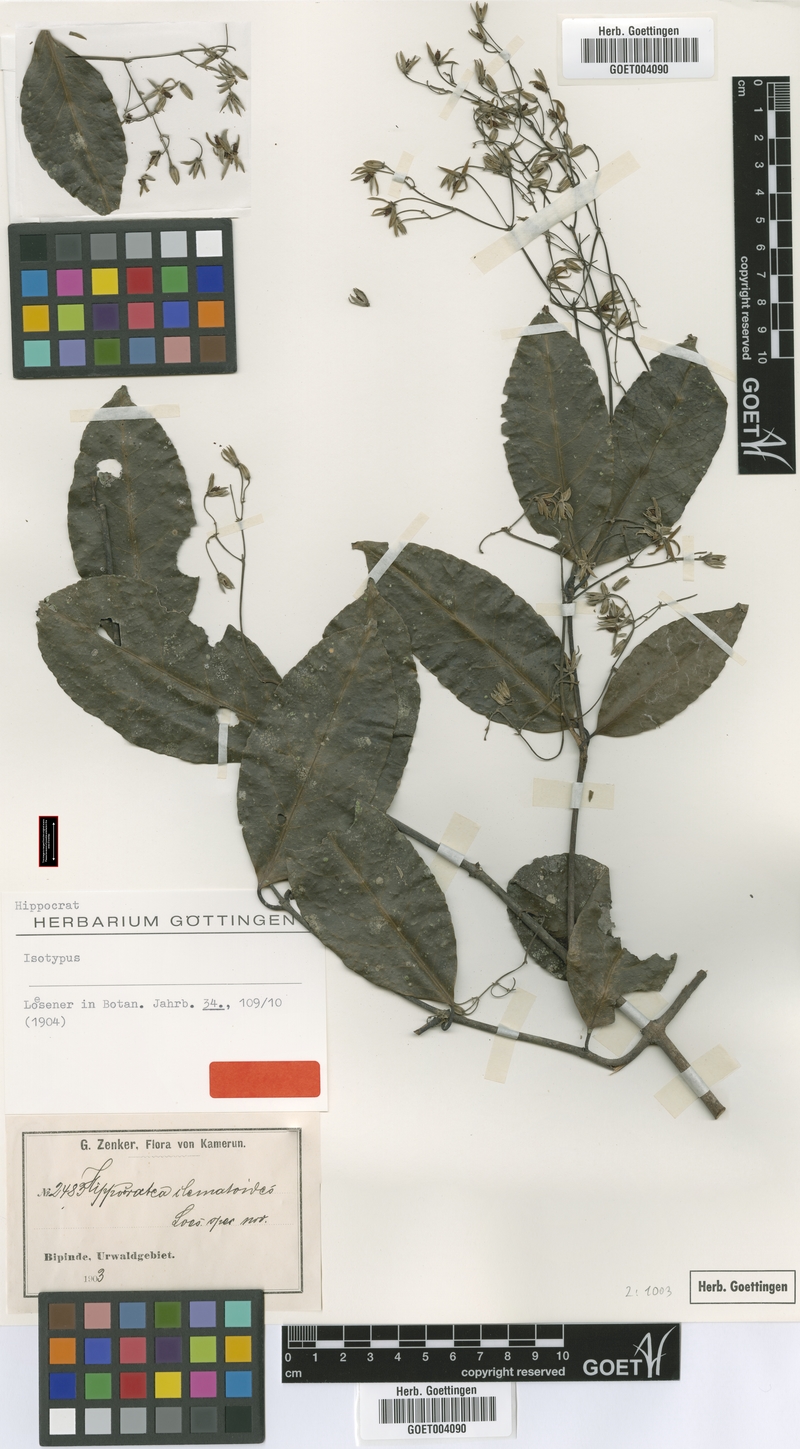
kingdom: Plantae
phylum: Tracheophyta
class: Magnoliopsida
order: Celastrales
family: Celastraceae
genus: Loeseneriella
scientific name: Loeseneriella clematoides
